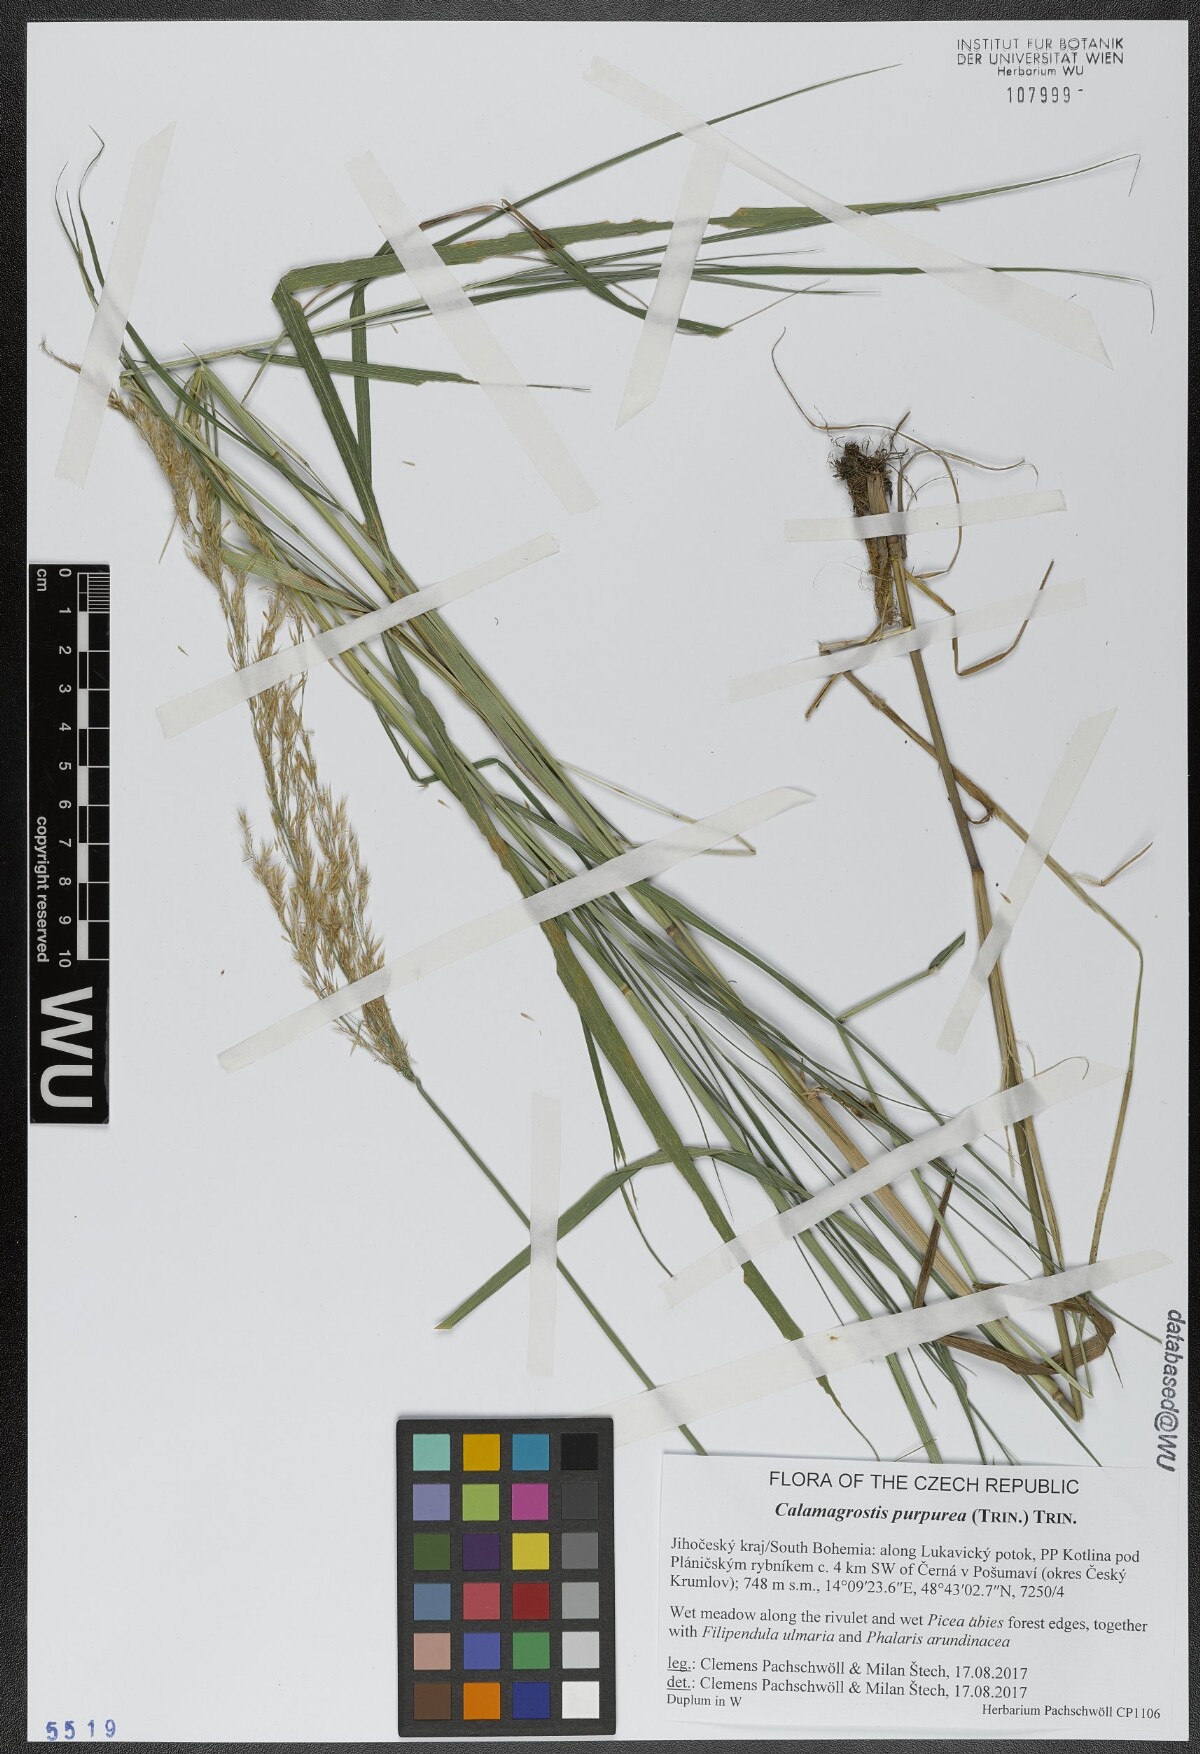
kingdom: Plantae
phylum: Tracheophyta
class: Liliopsida
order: Poales
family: Poaceae
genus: Calamagrostis
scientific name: Calamagrostis purpurea
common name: Scandinavian small-reed
